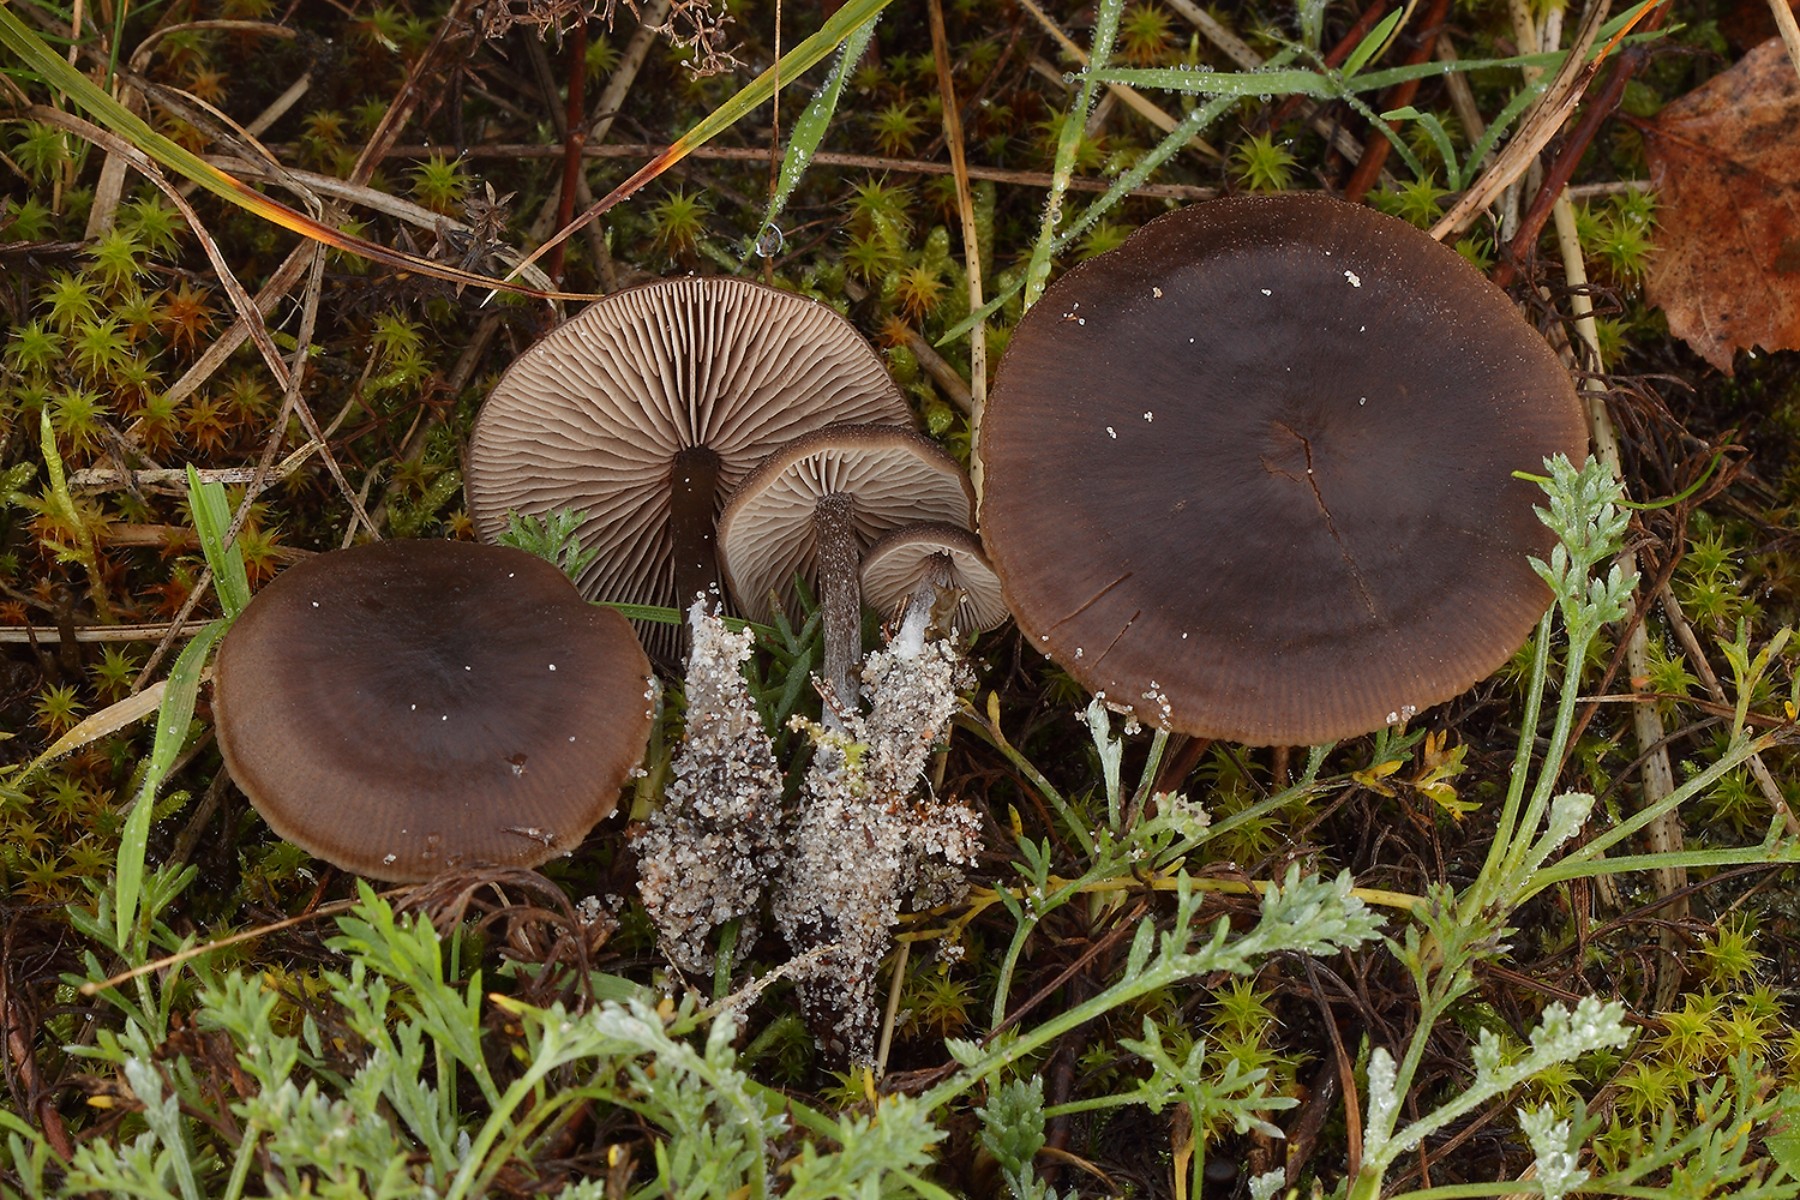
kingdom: Fungi
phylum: Basidiomycota
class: Agaricomycetes
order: Agaricales
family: Entolomataceae
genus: Entoloma
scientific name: Entoloma vindobonense
